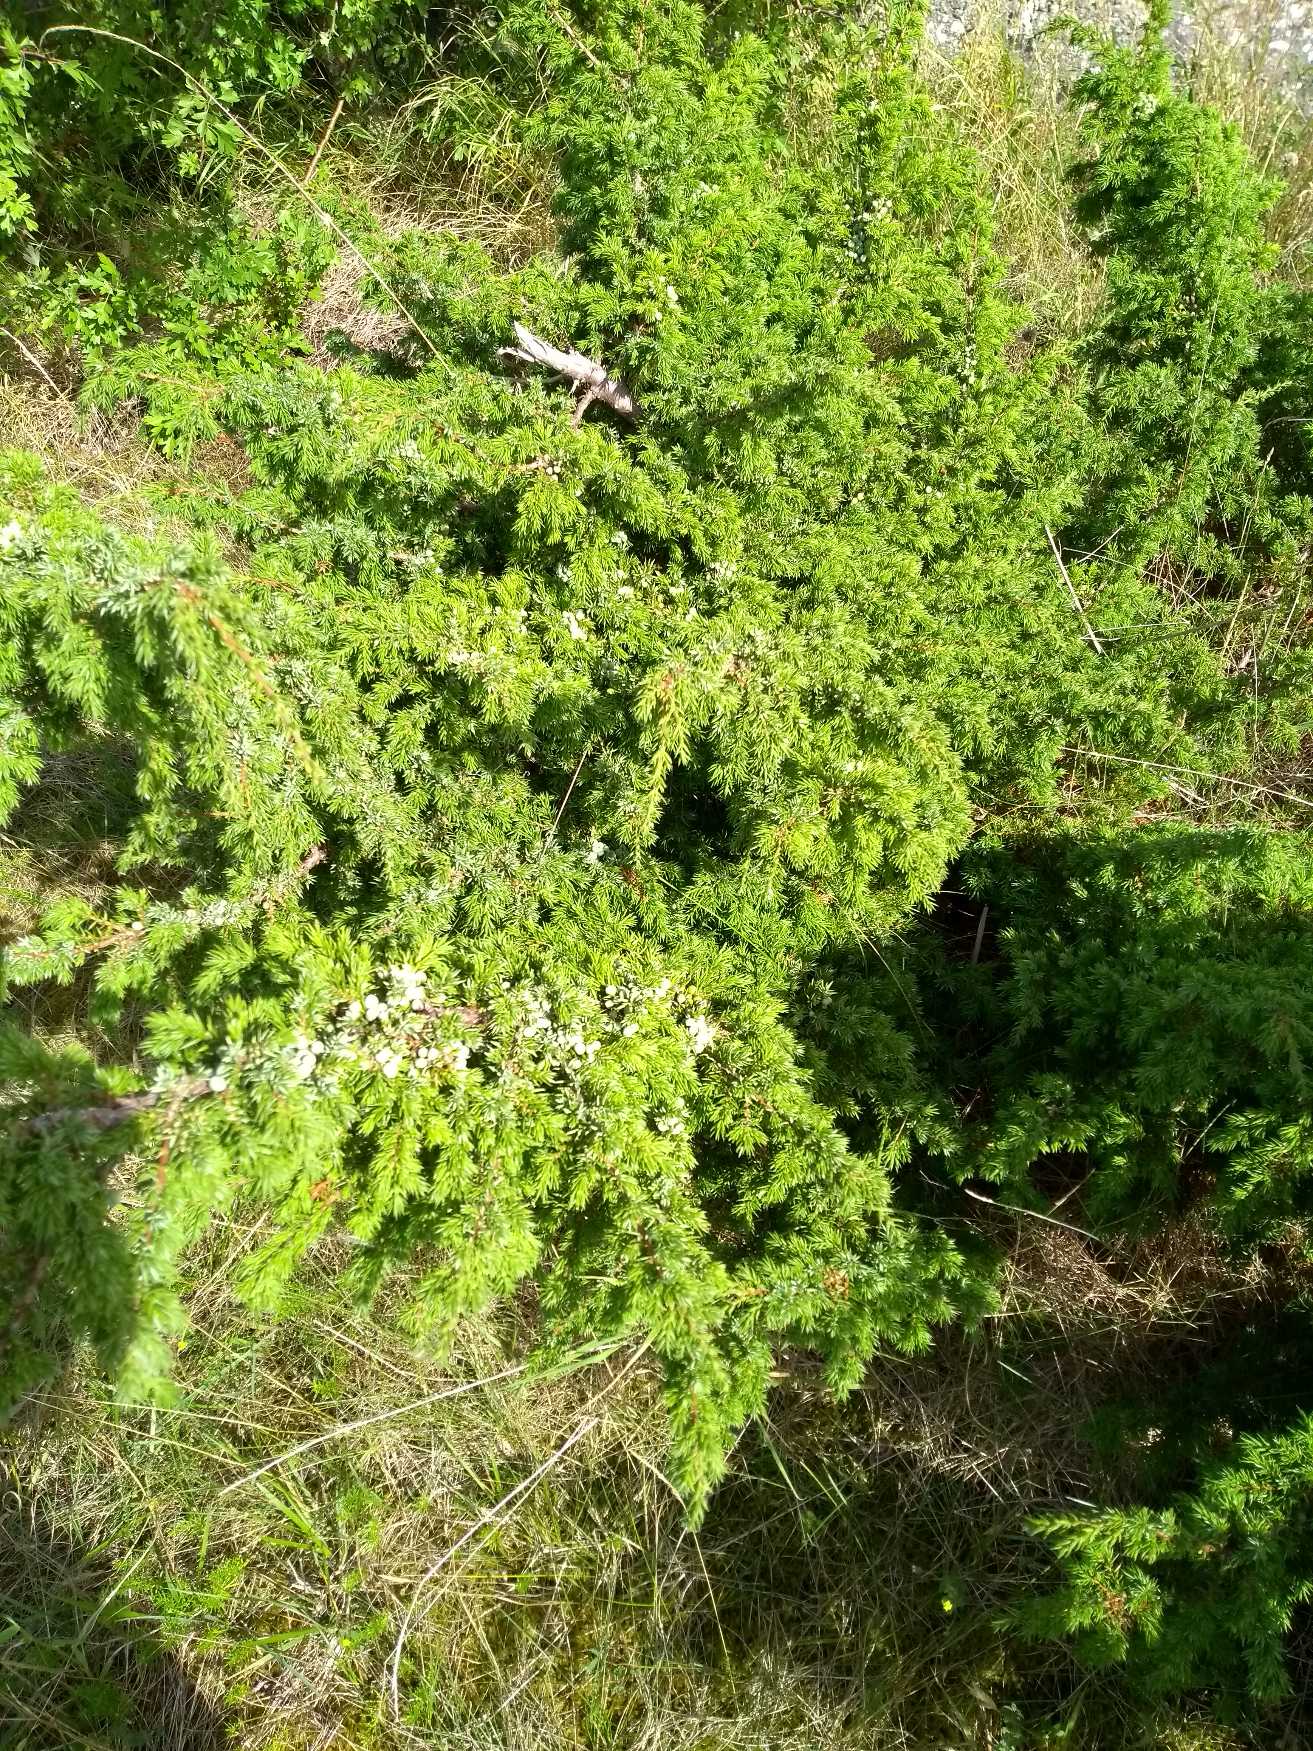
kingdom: Plantae
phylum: Tracheophyta
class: Pinopsida
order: Pinales
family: Cupressaceae
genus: Juniperus
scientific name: Juniperus communis
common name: Almindelig ene
